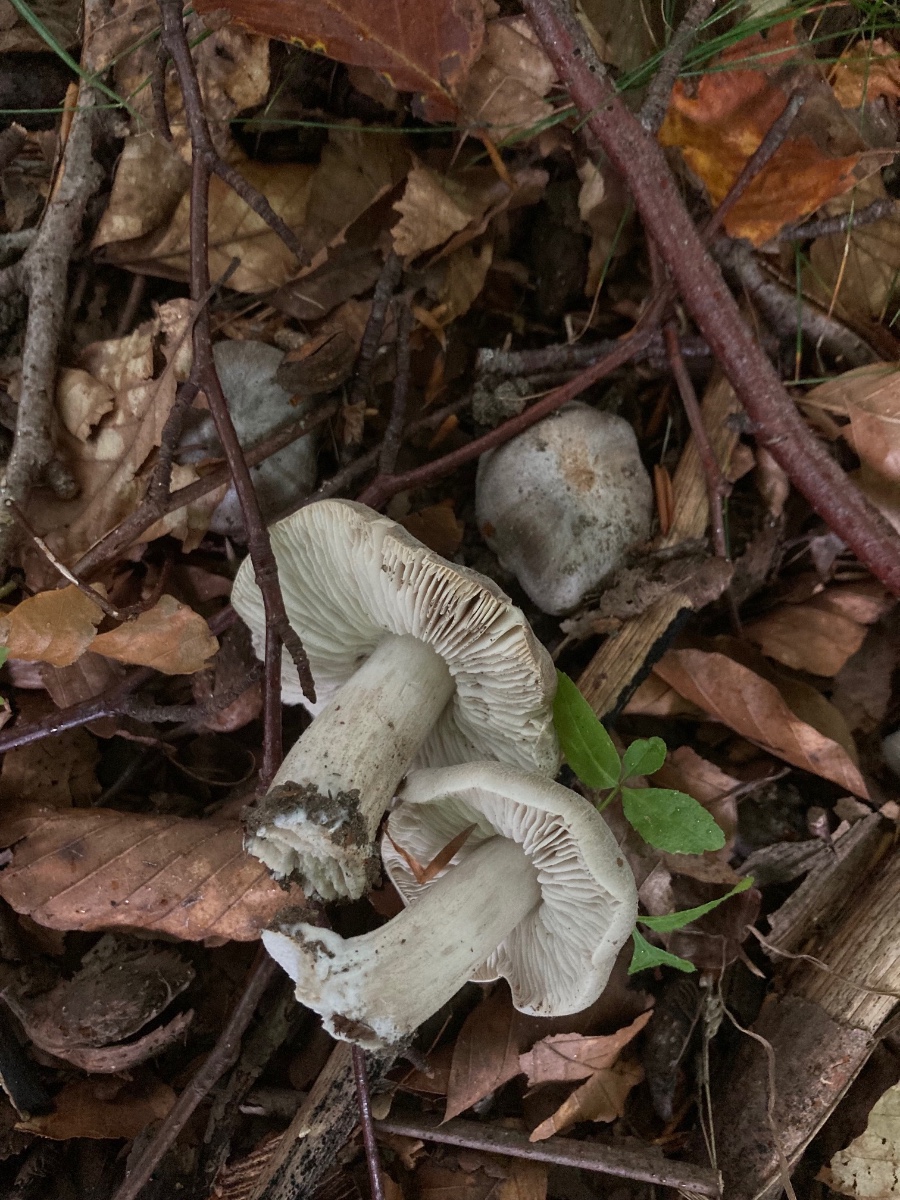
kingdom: Fungi
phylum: Basidiomycota
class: Agaricomycetes
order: Agaricales
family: Tricholomataceae
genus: Tricholoma
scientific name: Tricholoma sciodes
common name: stribet ridderhat
